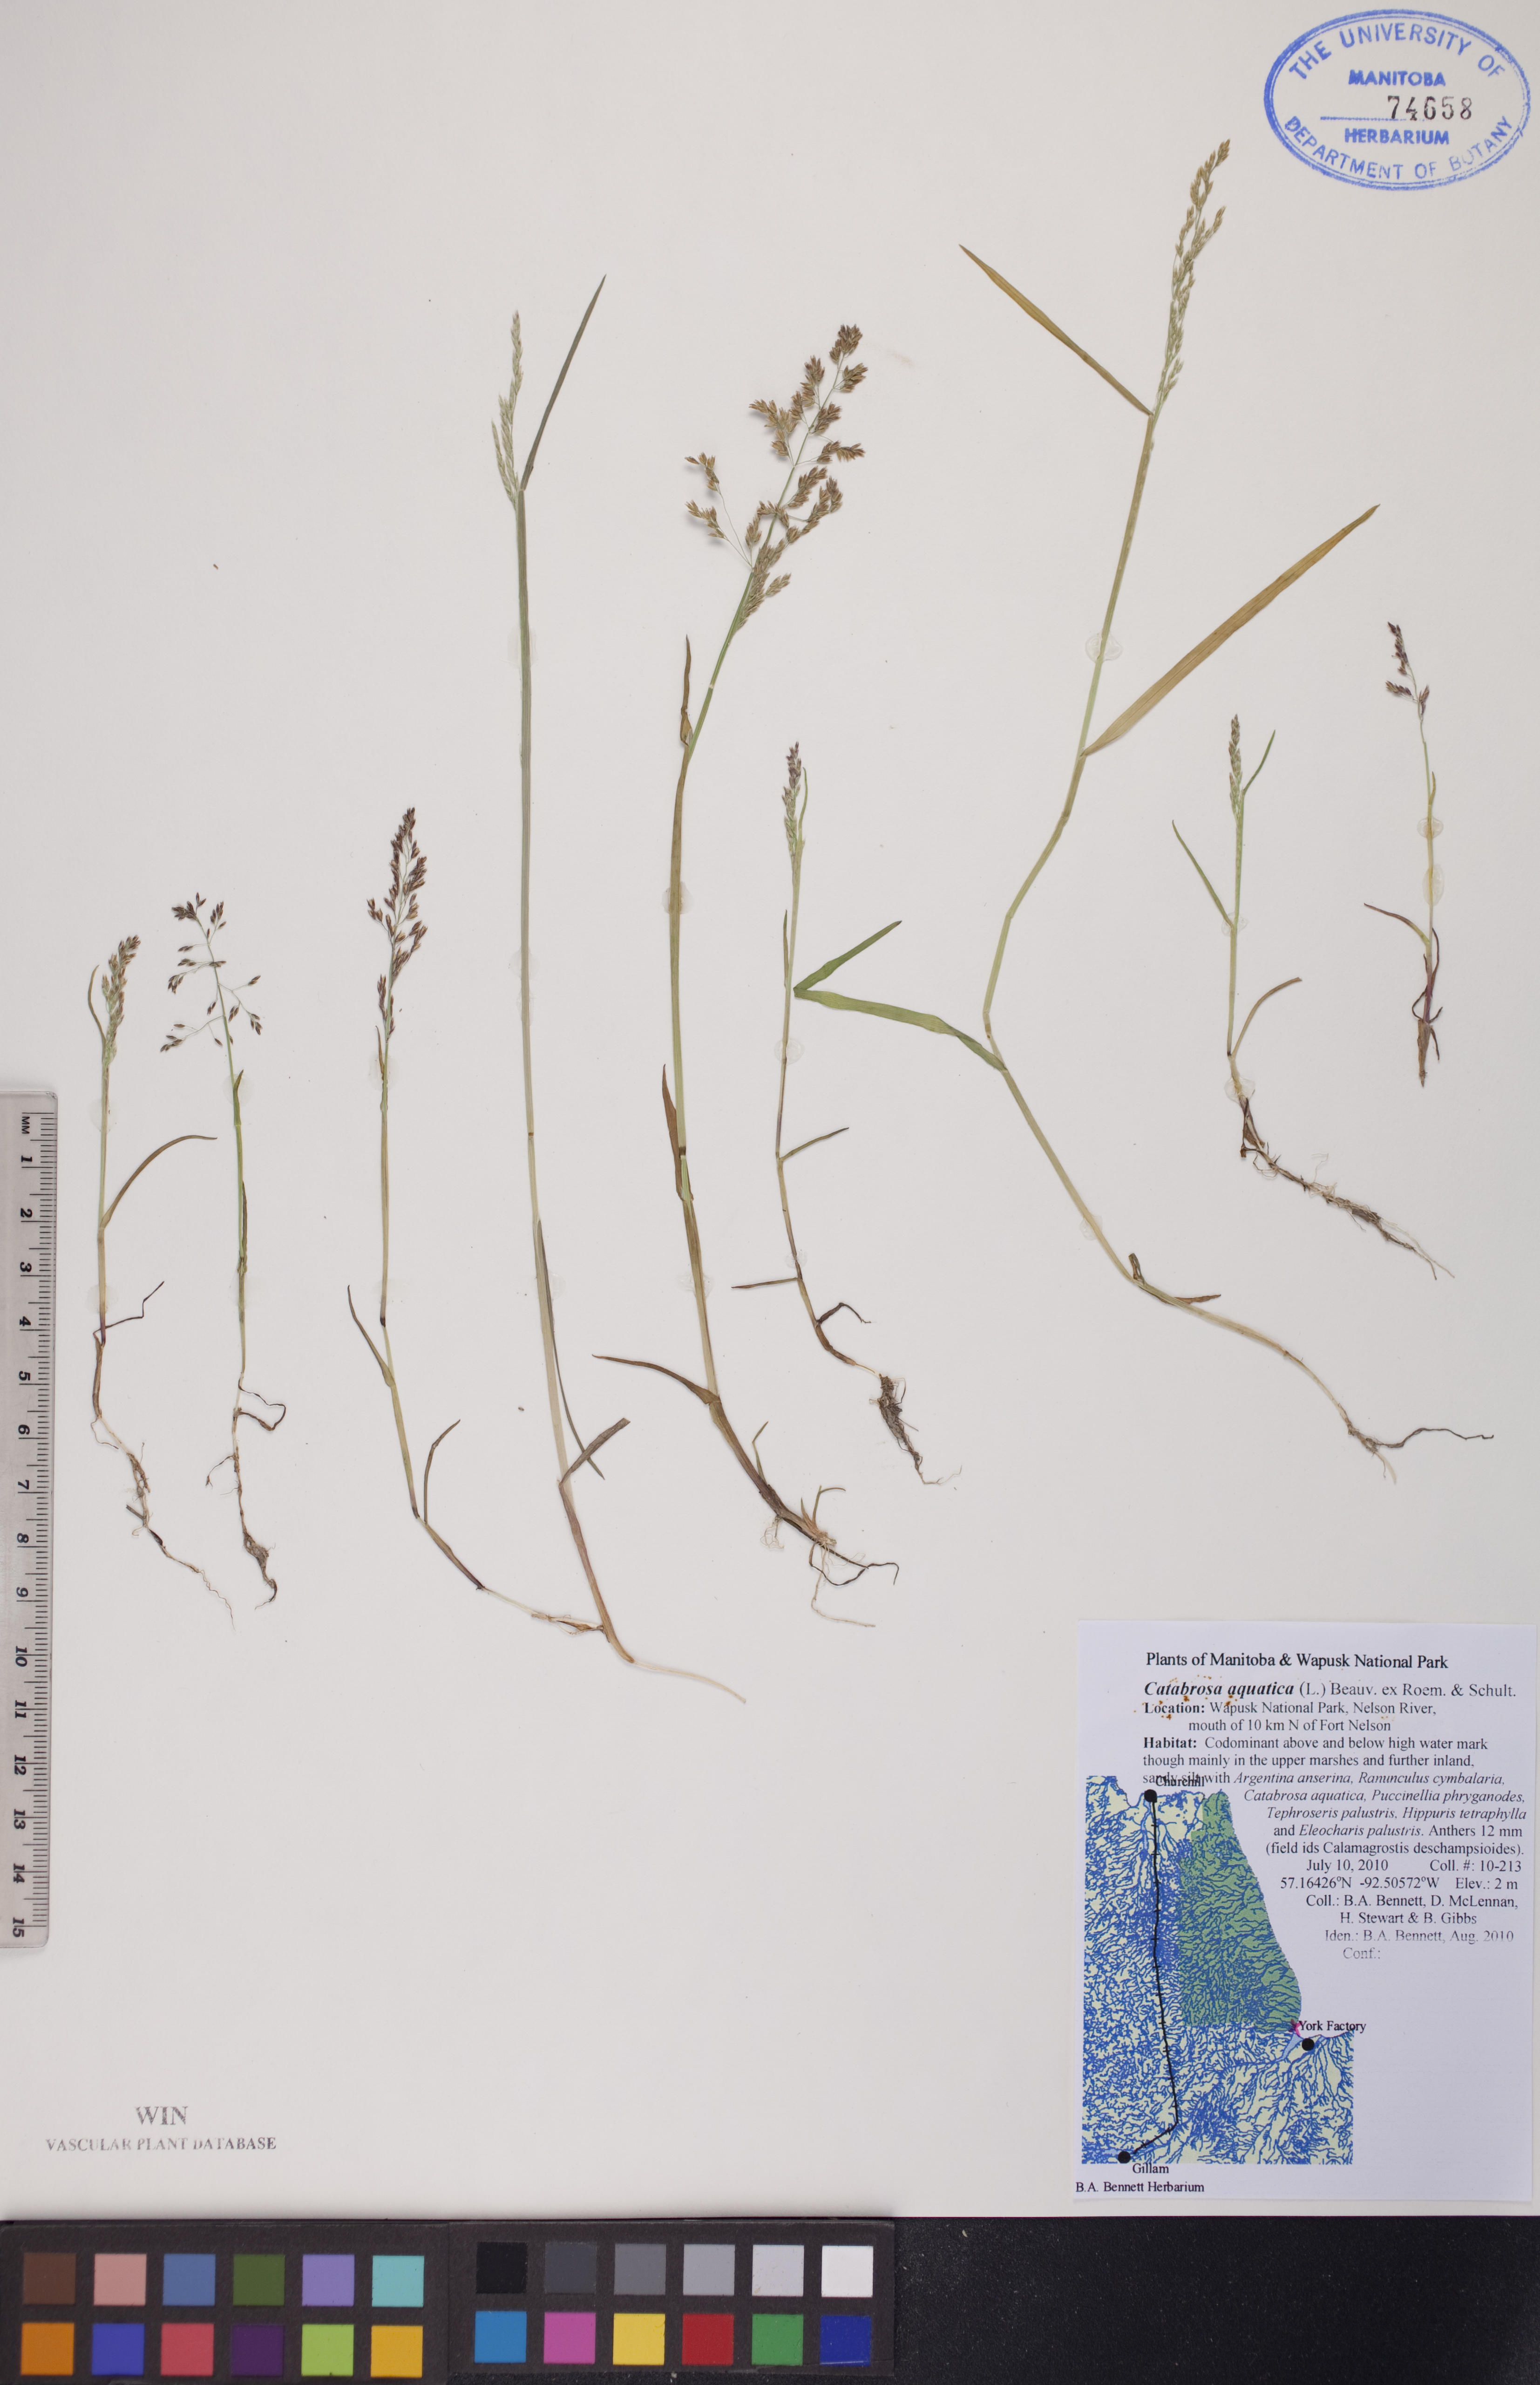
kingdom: Plantae
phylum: Tracheophyta
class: Liliopsida
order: Poales
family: Poaceae
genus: Catabrosa
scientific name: Catabrosa aquatica
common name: Whorl-grass
